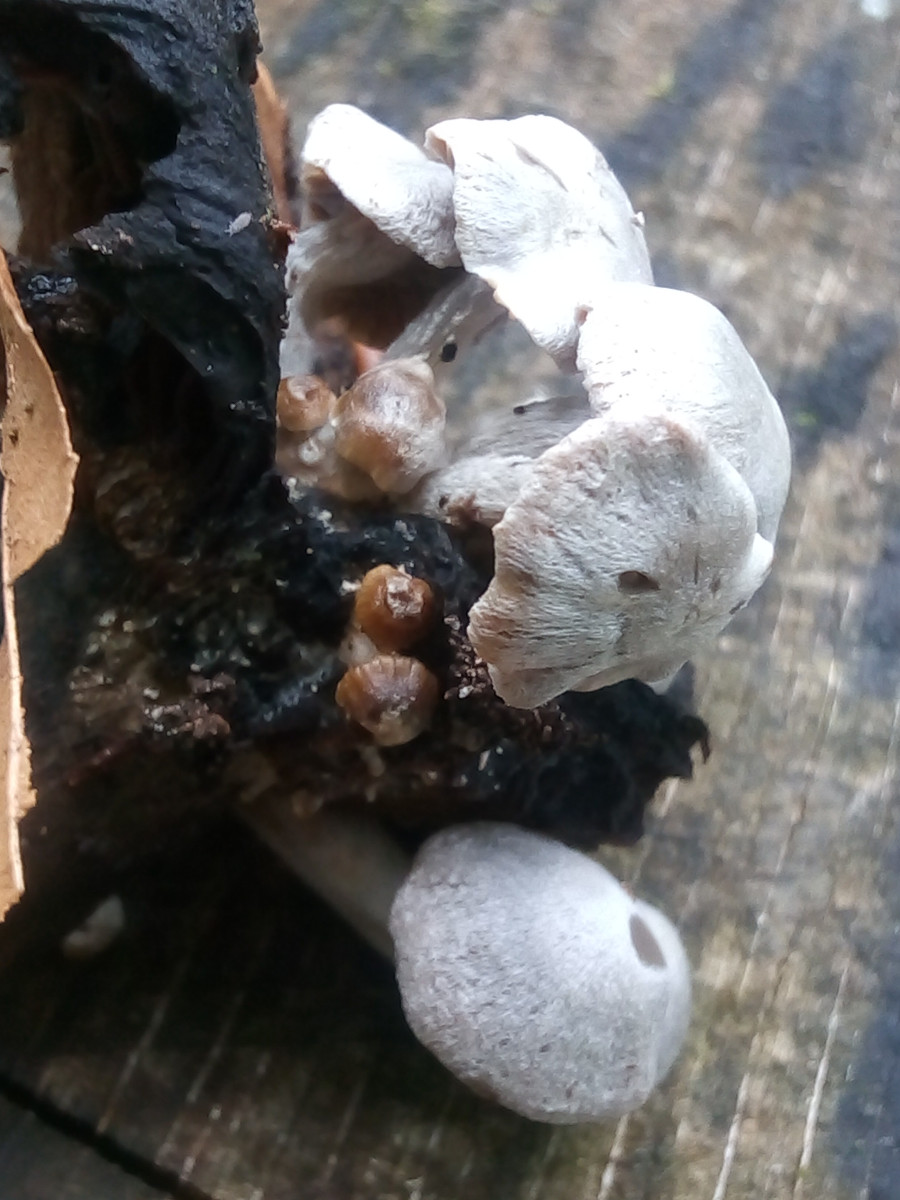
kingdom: Fungi
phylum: Basidiomycota
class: Agaricomycetes
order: Agaricales
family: Lyophyllaceae
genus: Asterophora
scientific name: Asterophora parasitica
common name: grå snyltehat
